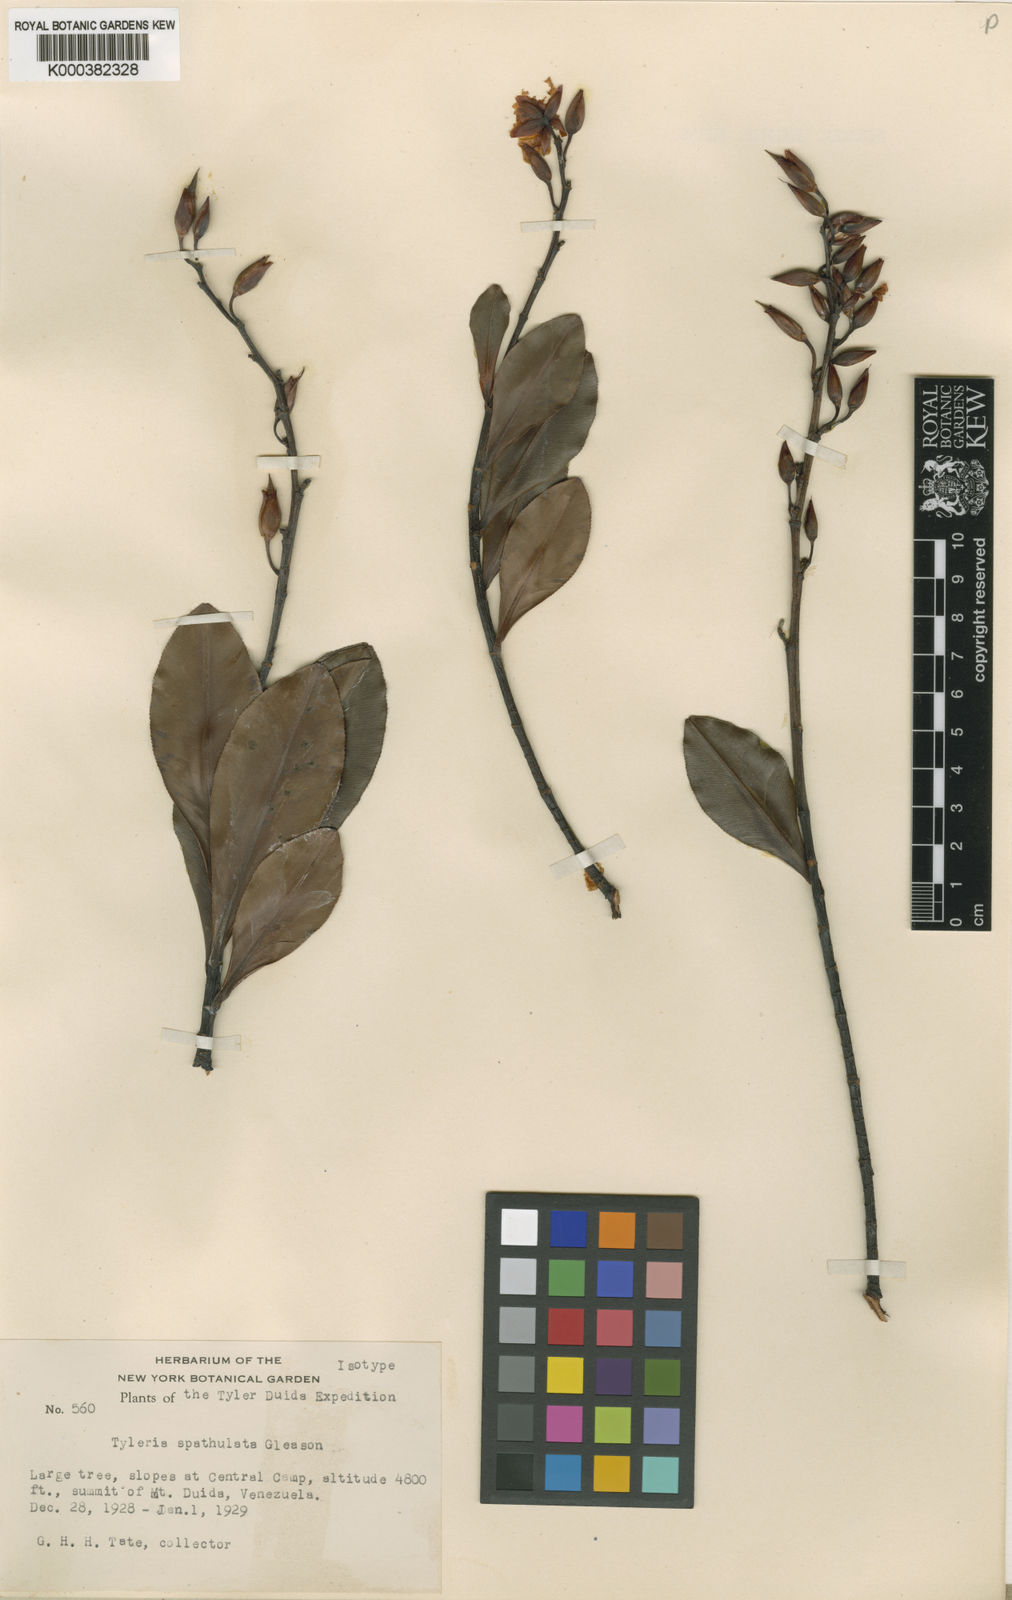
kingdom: Plantae
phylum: Tracheophyta
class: Magnoliopsida
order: Malpighiales
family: Ochnaceae
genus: Tyleria
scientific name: Tyleria spathulata
